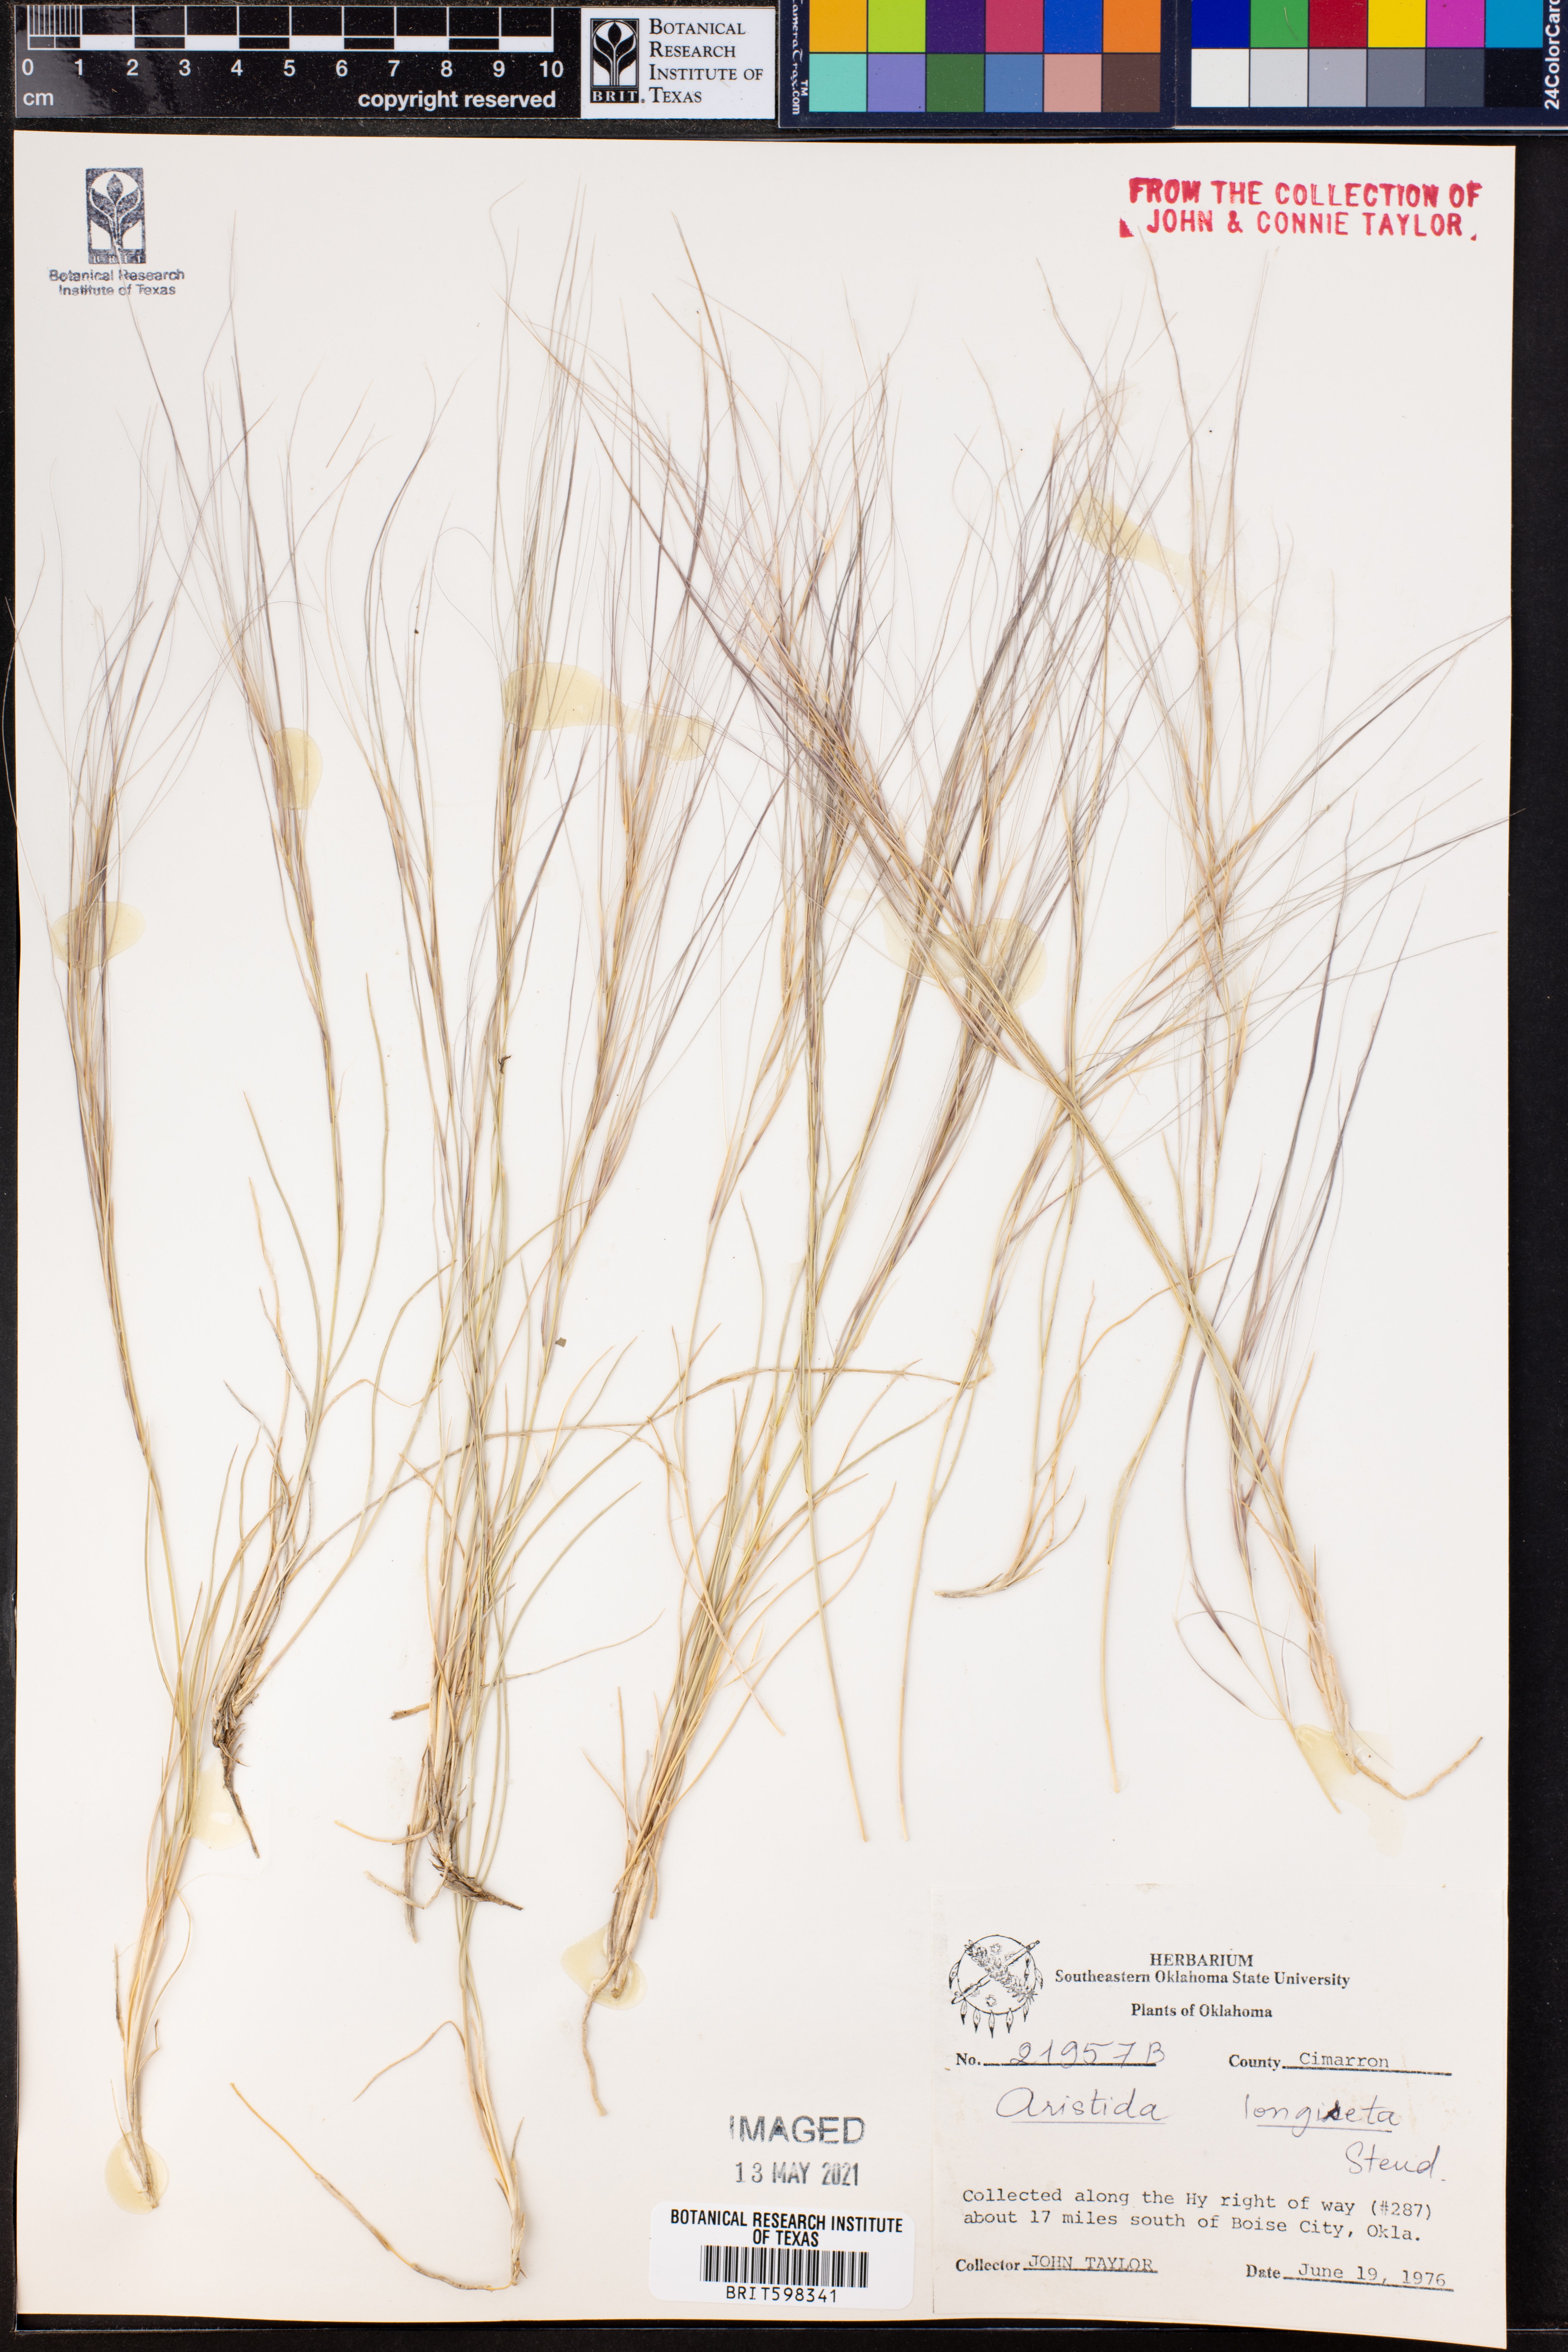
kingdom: Plantae
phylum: Tracheophyta
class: Liliopsida
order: Poales
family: Poaceae
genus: Aristida
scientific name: Aristida longiseta
